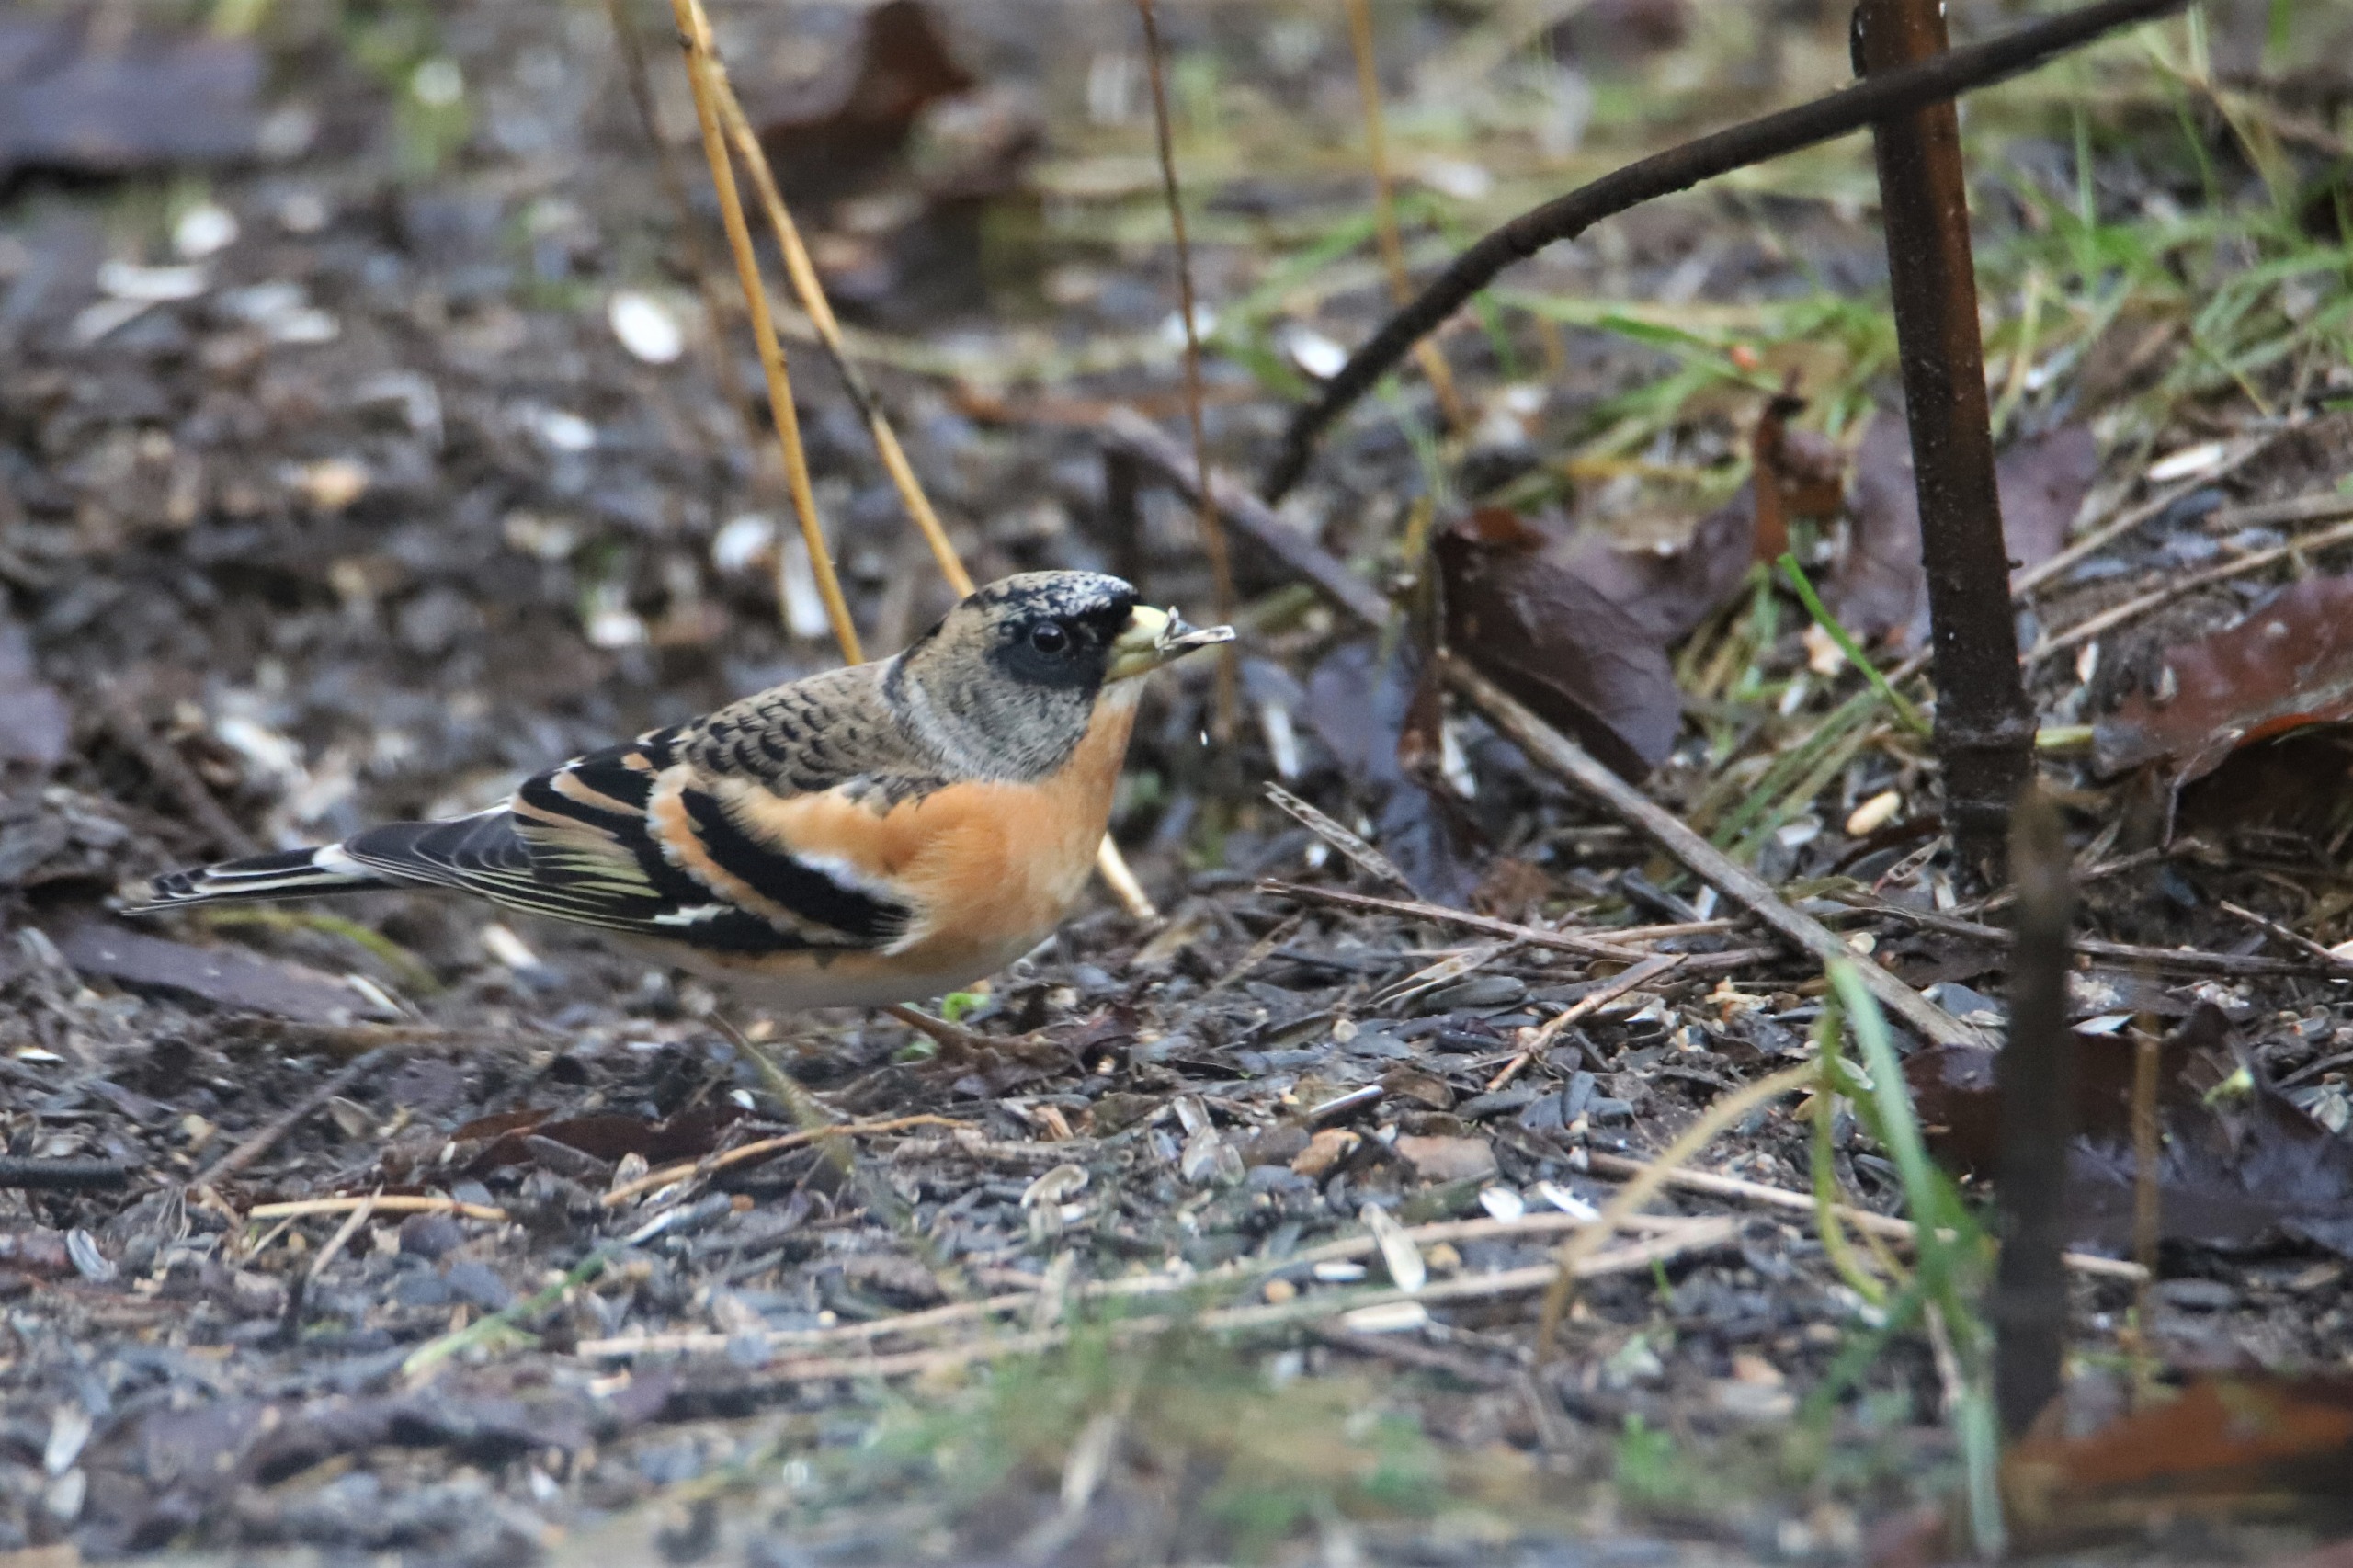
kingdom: Animalia
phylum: Chordata
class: Aves
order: Passeriformes
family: Fringillidae
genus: Fringilla
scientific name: Fringilla montifringilla
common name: Kvækerfinke
